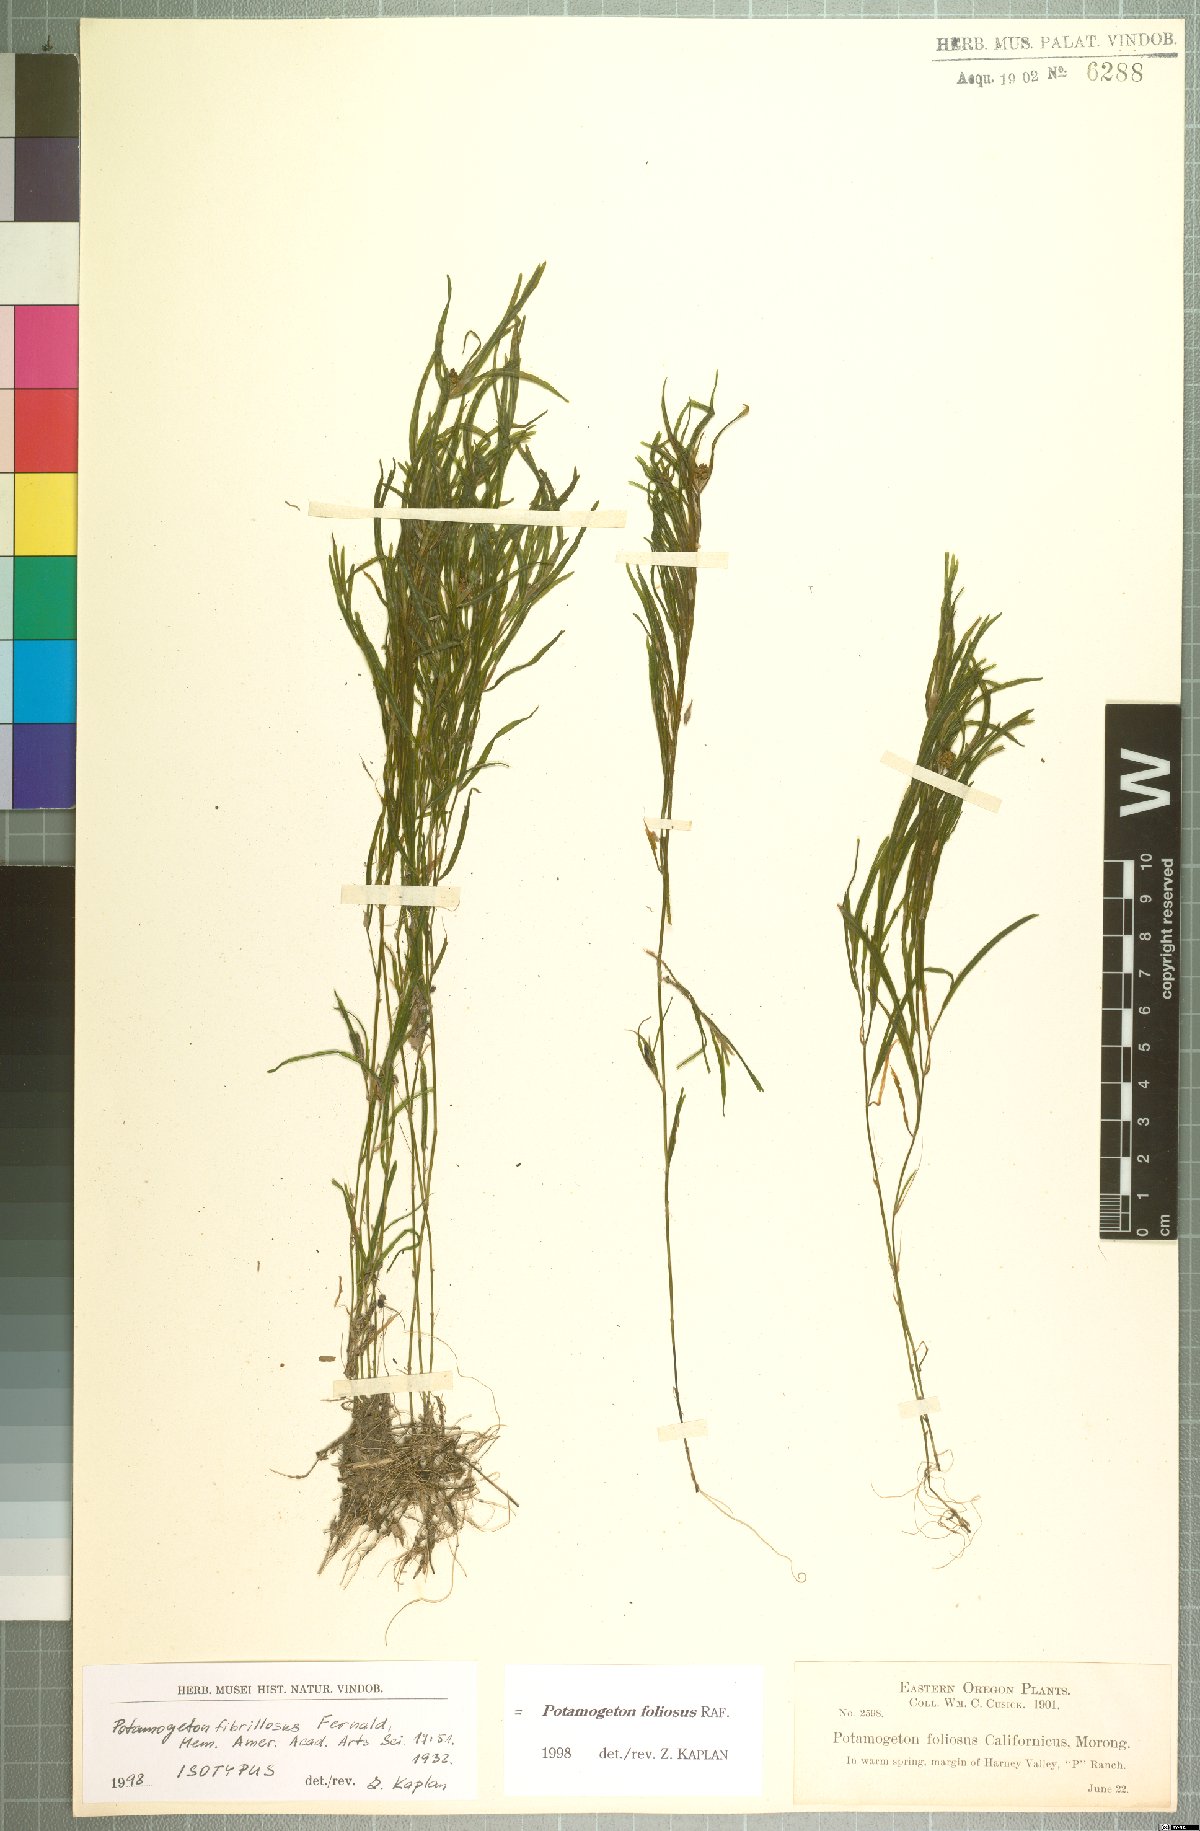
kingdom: Plantae
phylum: Tracheophyta
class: Liliopsida
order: Alismatales
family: Potamogetonaceae
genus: Potamogeton
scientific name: Potamogeton foliosus
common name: Leafy pondweed
